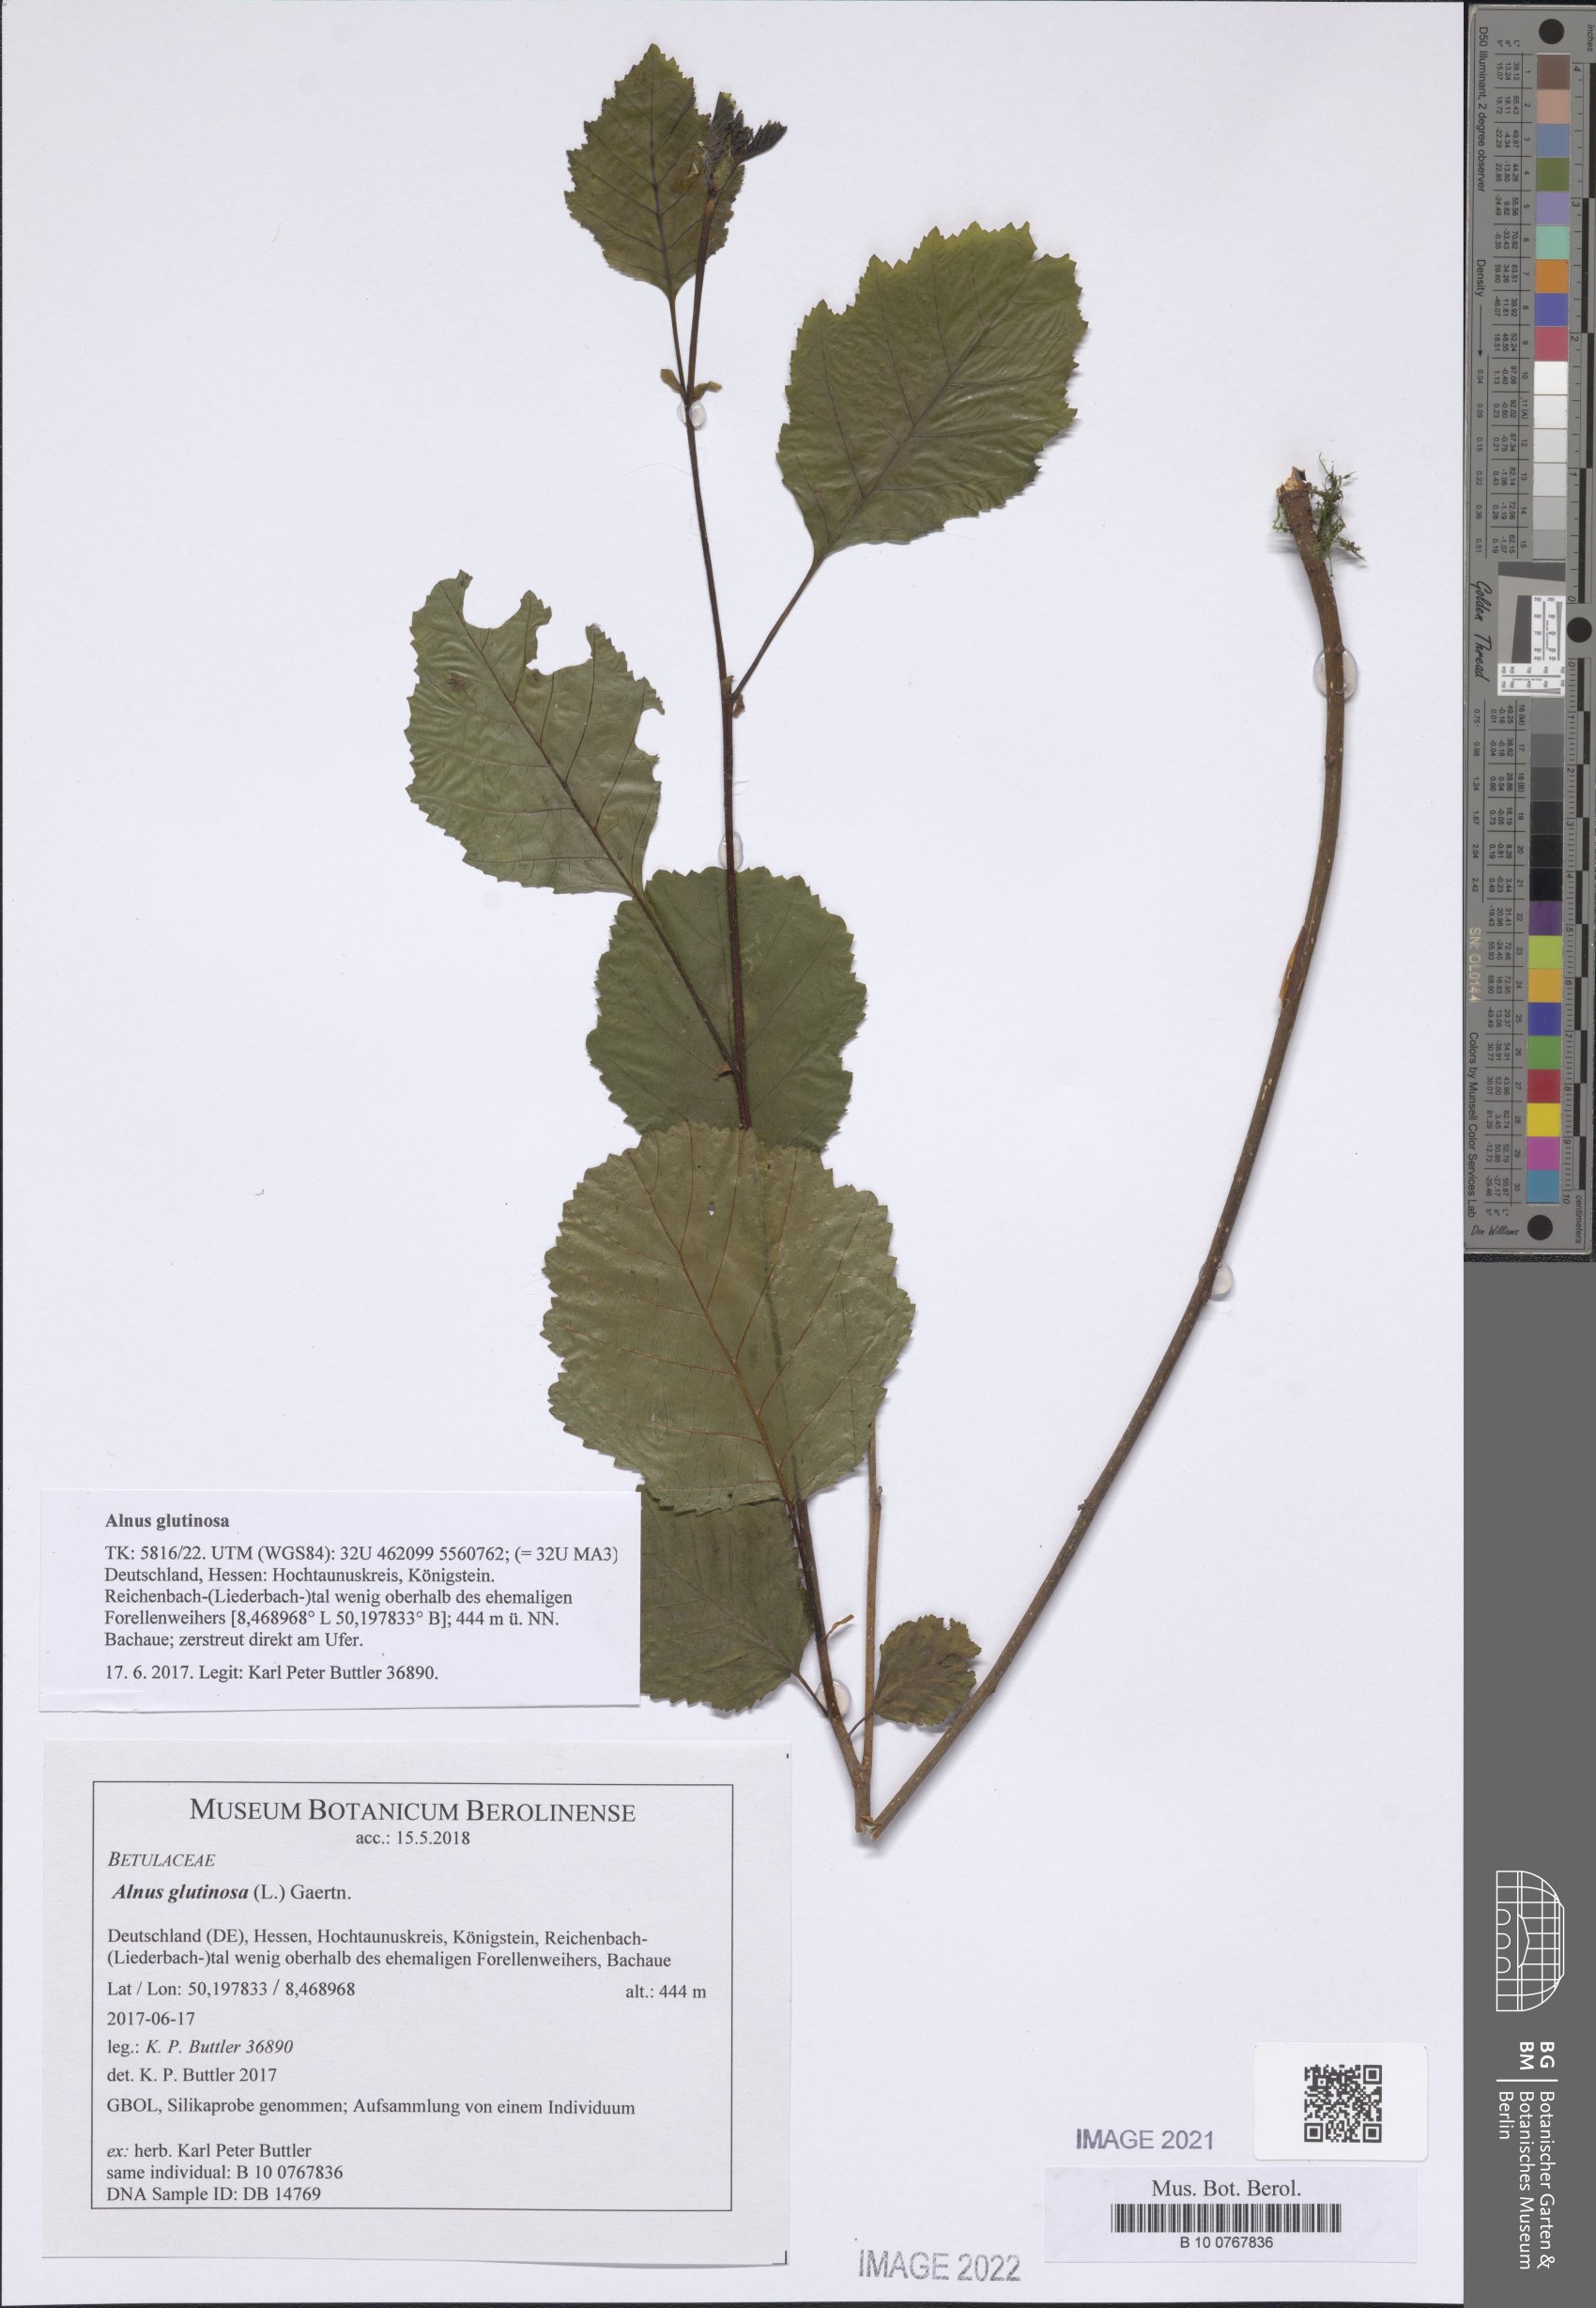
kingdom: Plantae
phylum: Tracheophyta
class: Magnoliopsida
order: Fagales
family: Betulaceae
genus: Alnus
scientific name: Alnus glutinosa
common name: Black alder
